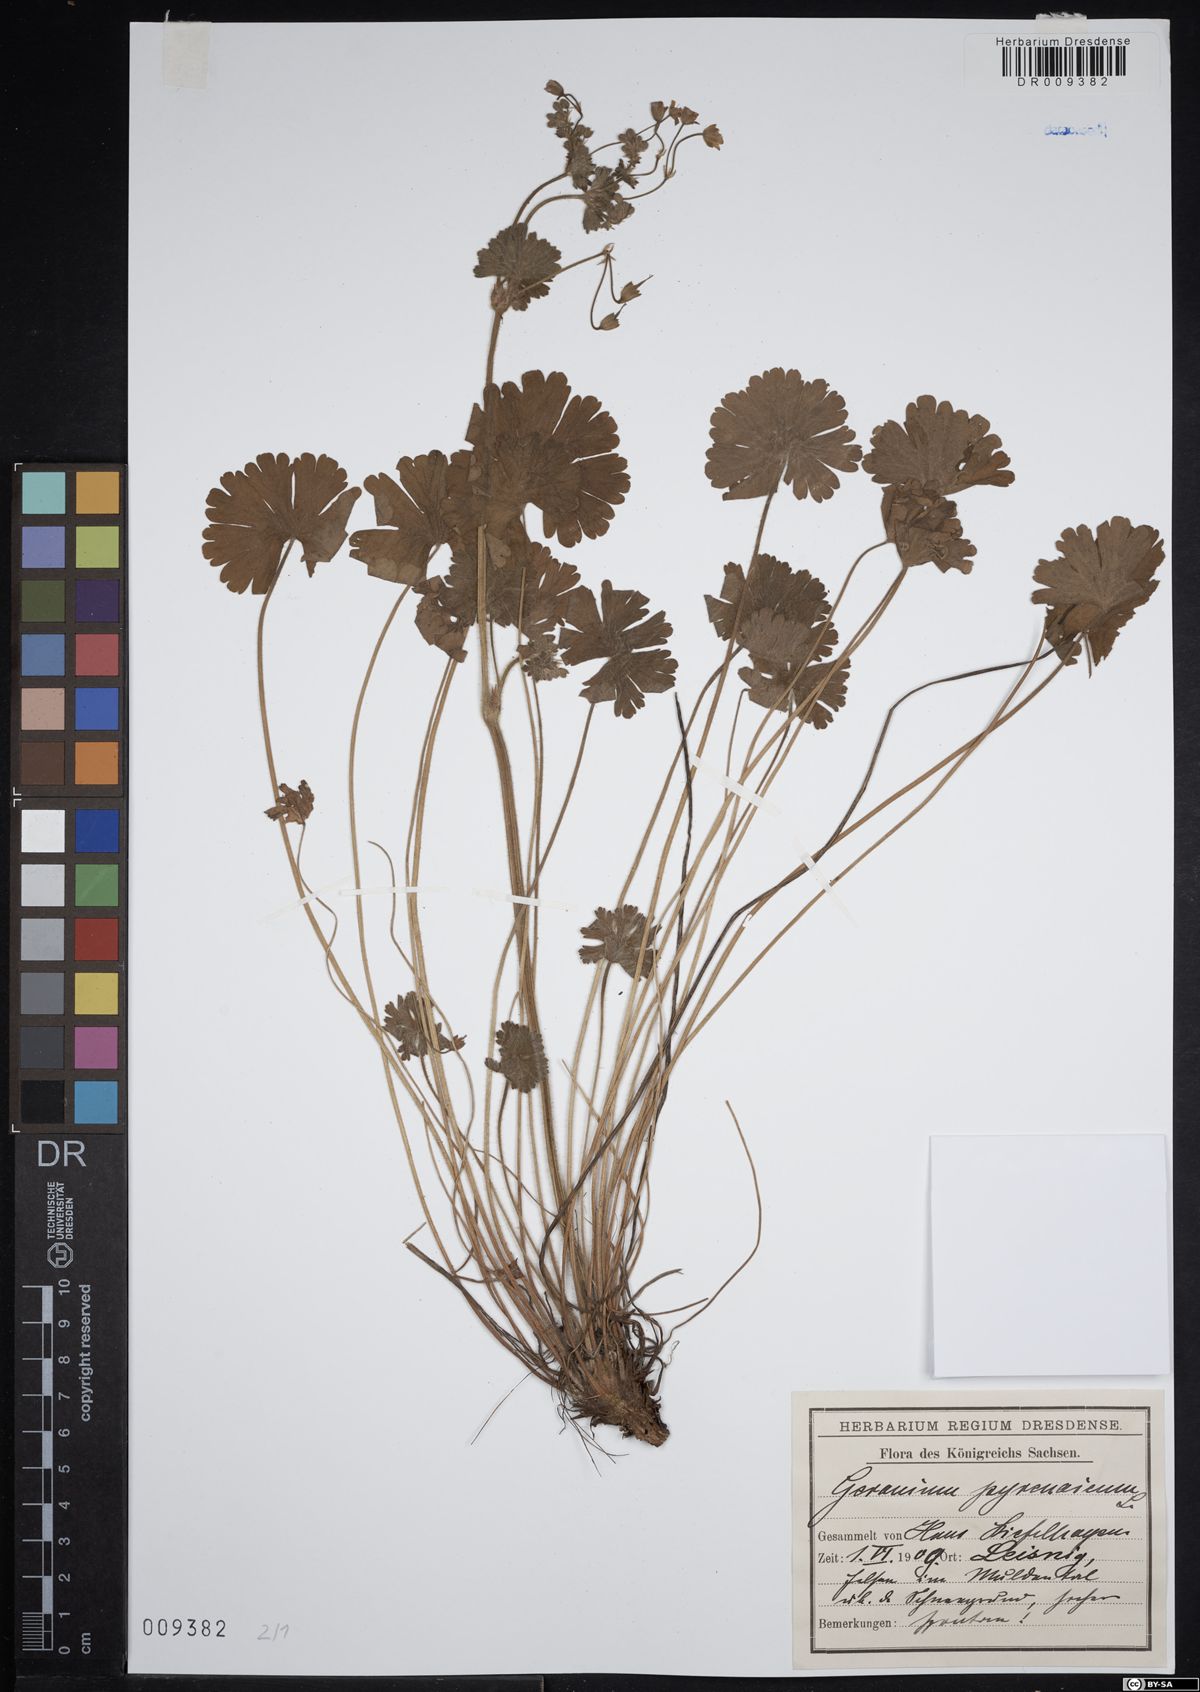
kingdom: Plantae
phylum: Tracheophyta
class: Magnoliopsida
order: Geraniales
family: Geraniaceae
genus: Geranium
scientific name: Geranium pyrenaicum
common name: Hedgerow crane's-bill
